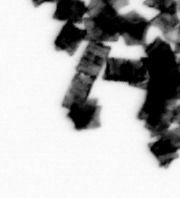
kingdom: Chromista
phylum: Ochrophyta
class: Bacillariophyceae
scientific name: Bacillariophyceae
